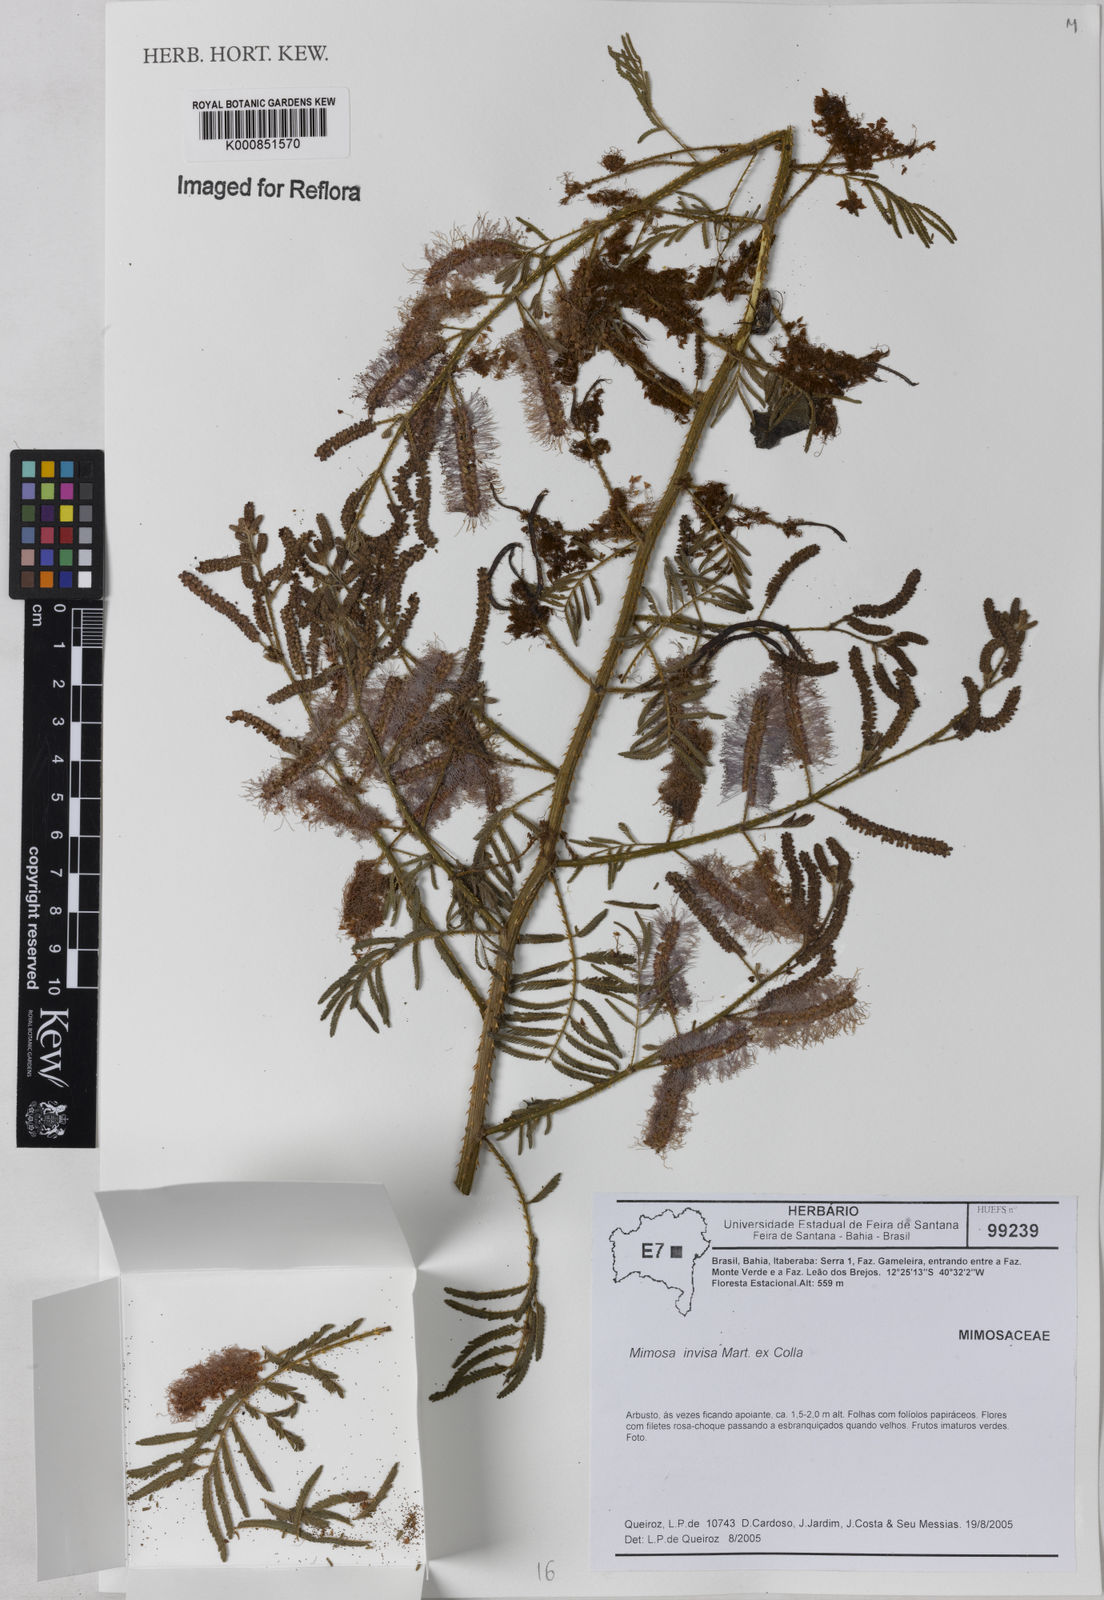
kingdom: Plantae
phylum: Tracheophyta
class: Magnoliopsida
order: Fabales
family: Fabaceae
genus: Mimosa
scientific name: Mimosa
